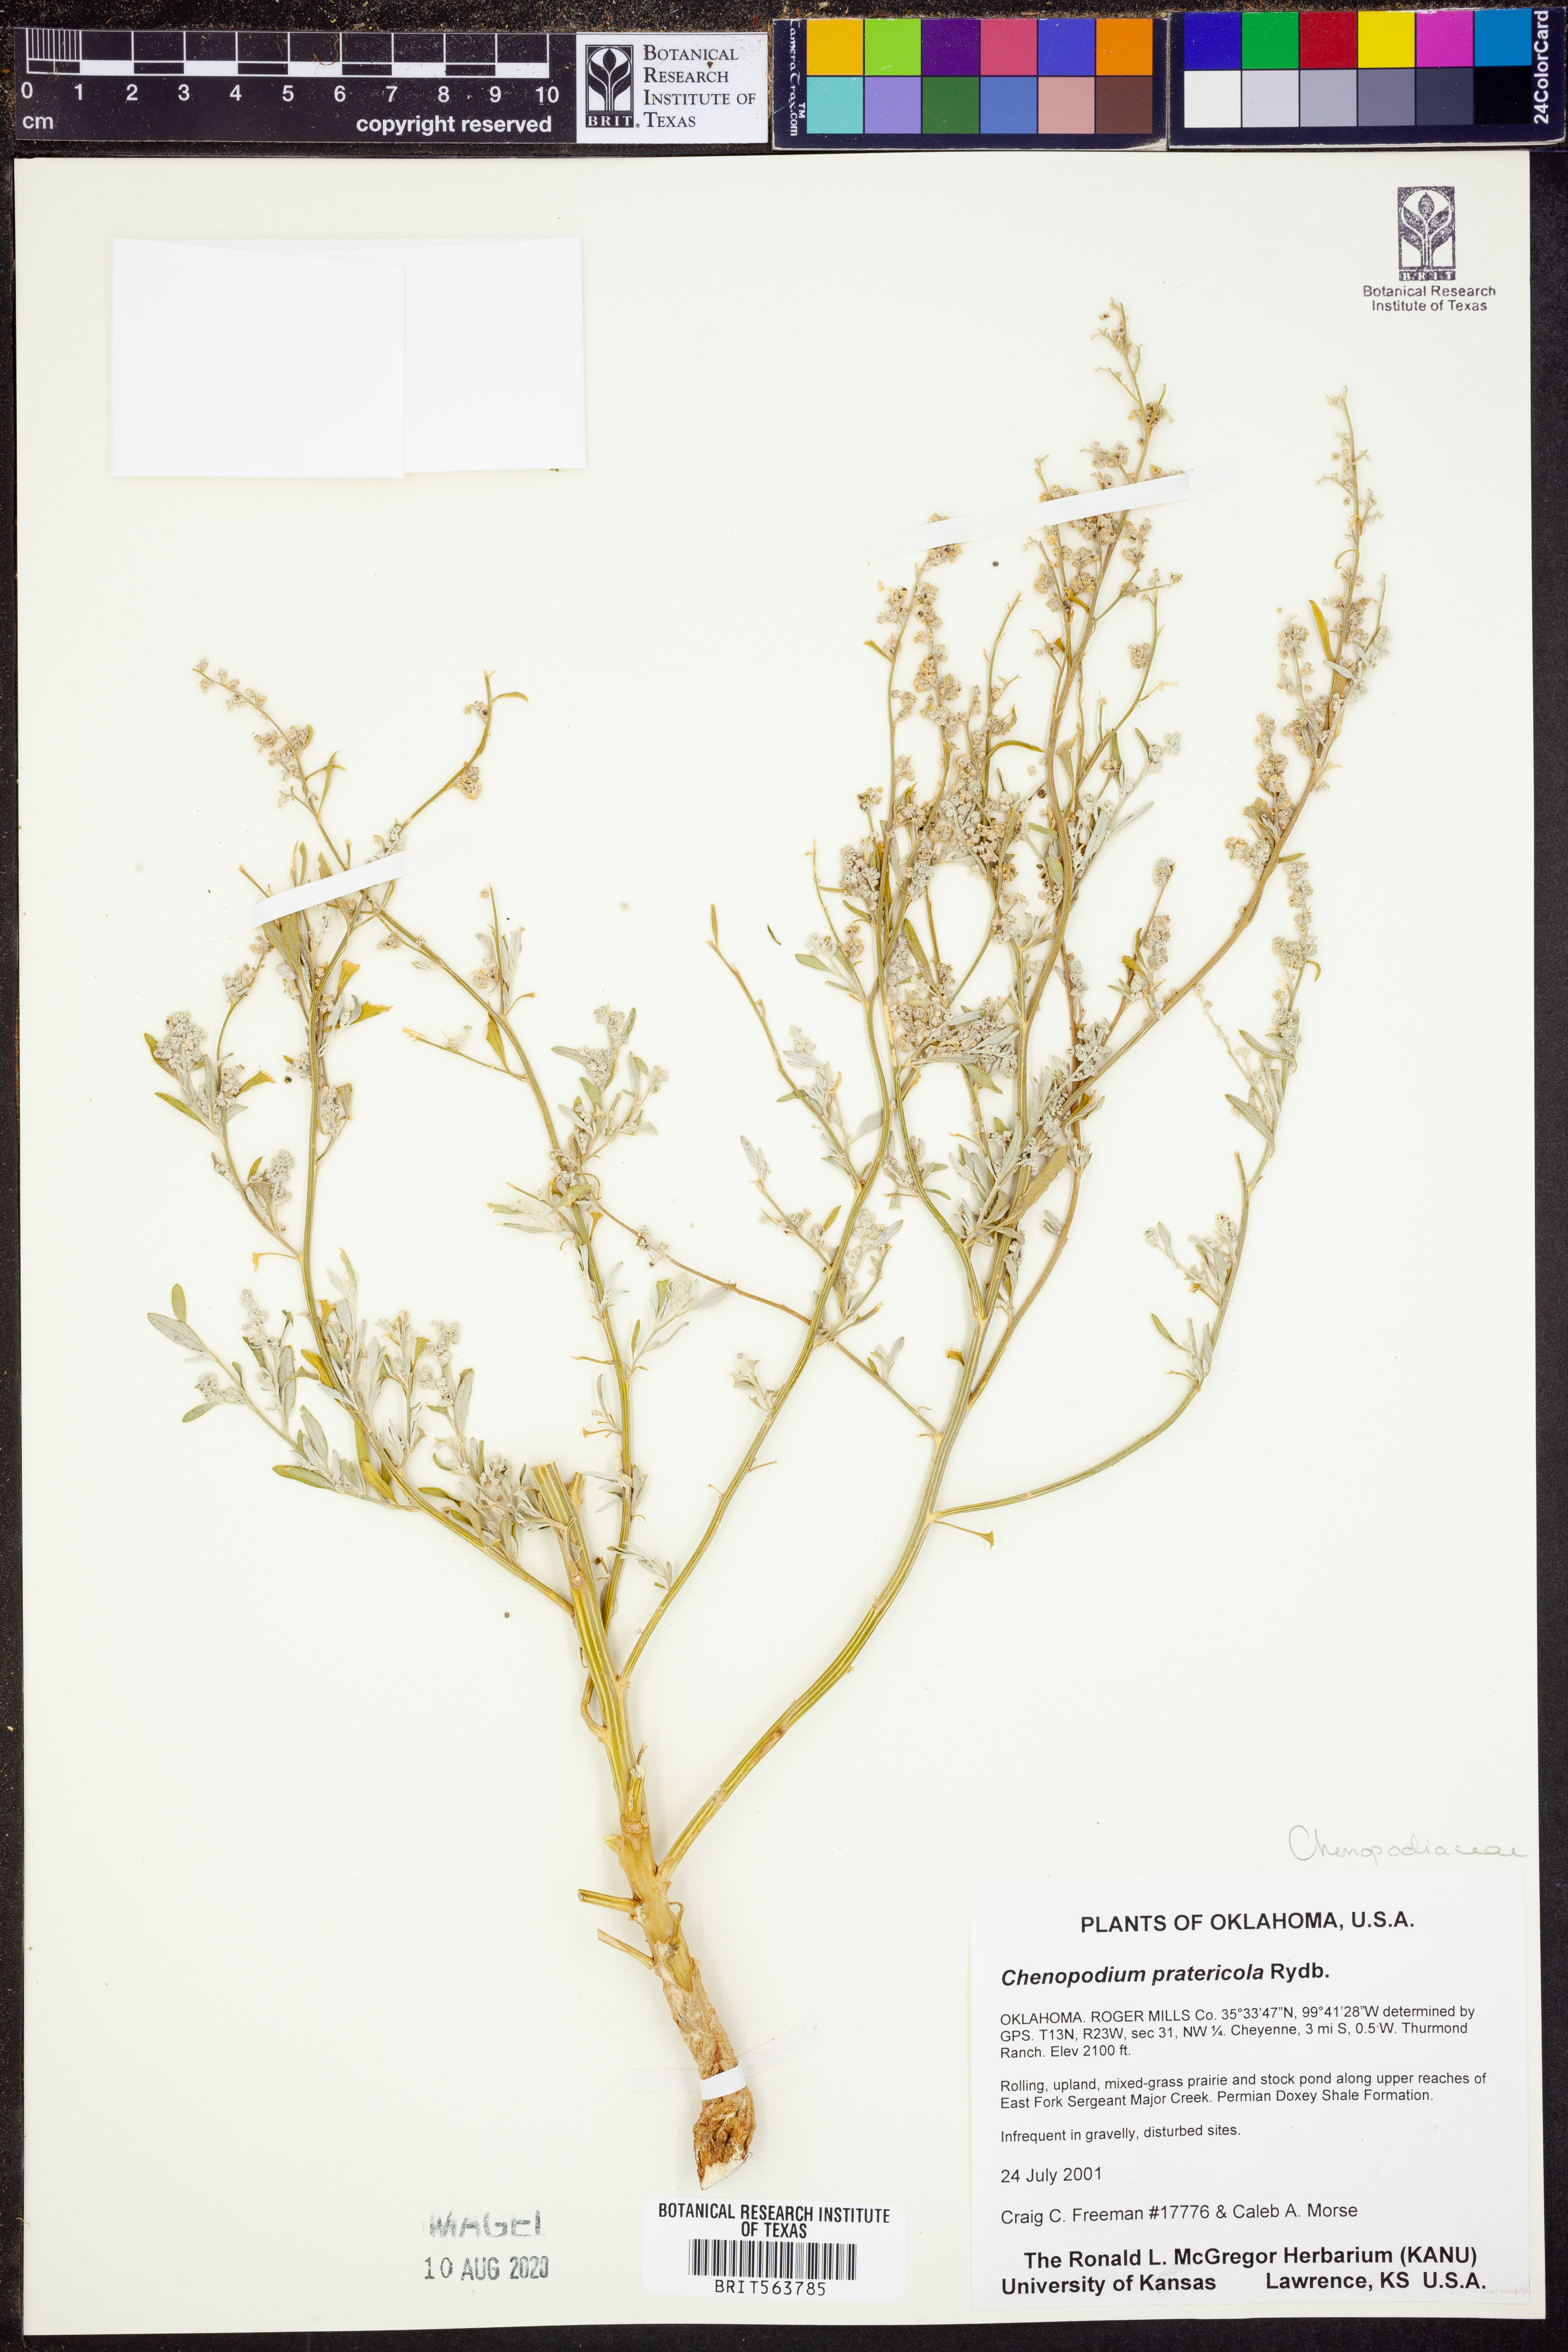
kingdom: Plantae
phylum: Tracheophyta
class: Magnoliopsida
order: Caryophyllales
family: Amaranthaceae
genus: Chenopodium
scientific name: Chenopodium pratericola
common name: Desert goosefoot
